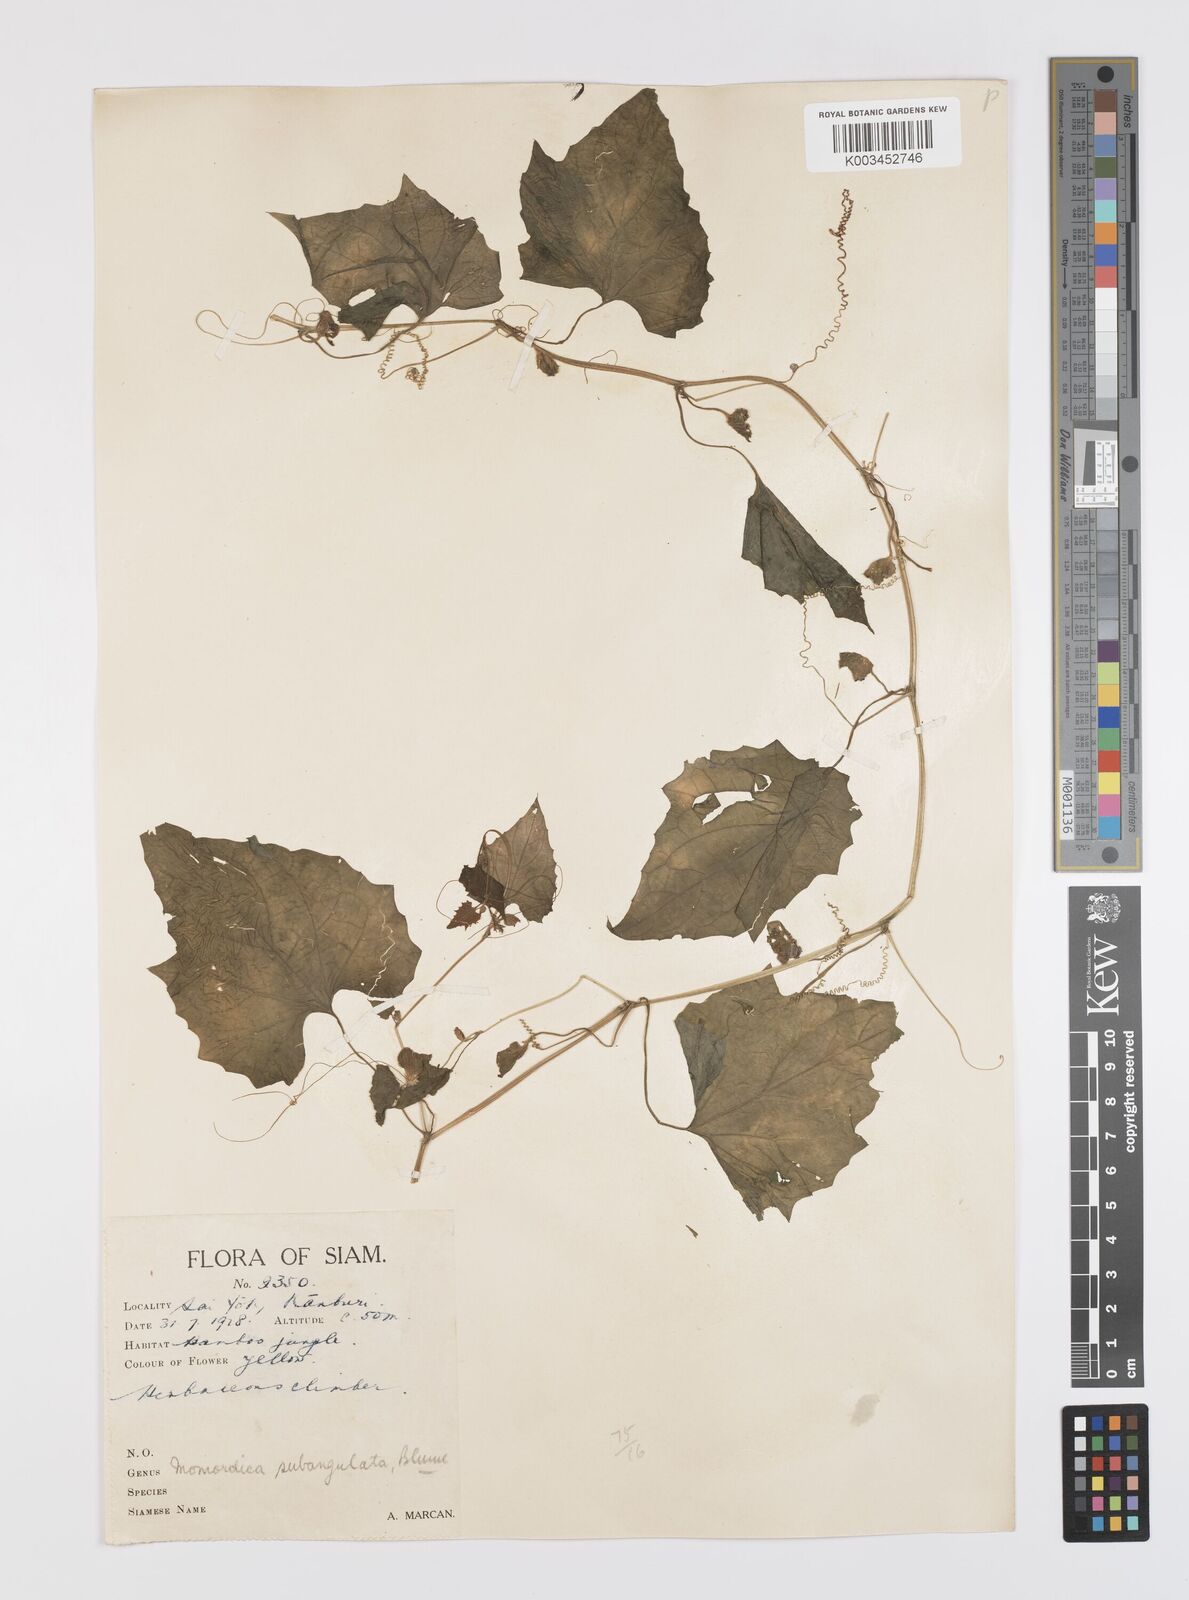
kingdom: Plantae
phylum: Tracheophyta
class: Magnoliopsida
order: Cucurbitales
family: Cucurbitaceae
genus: Momordica
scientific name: Momordica subangulata
